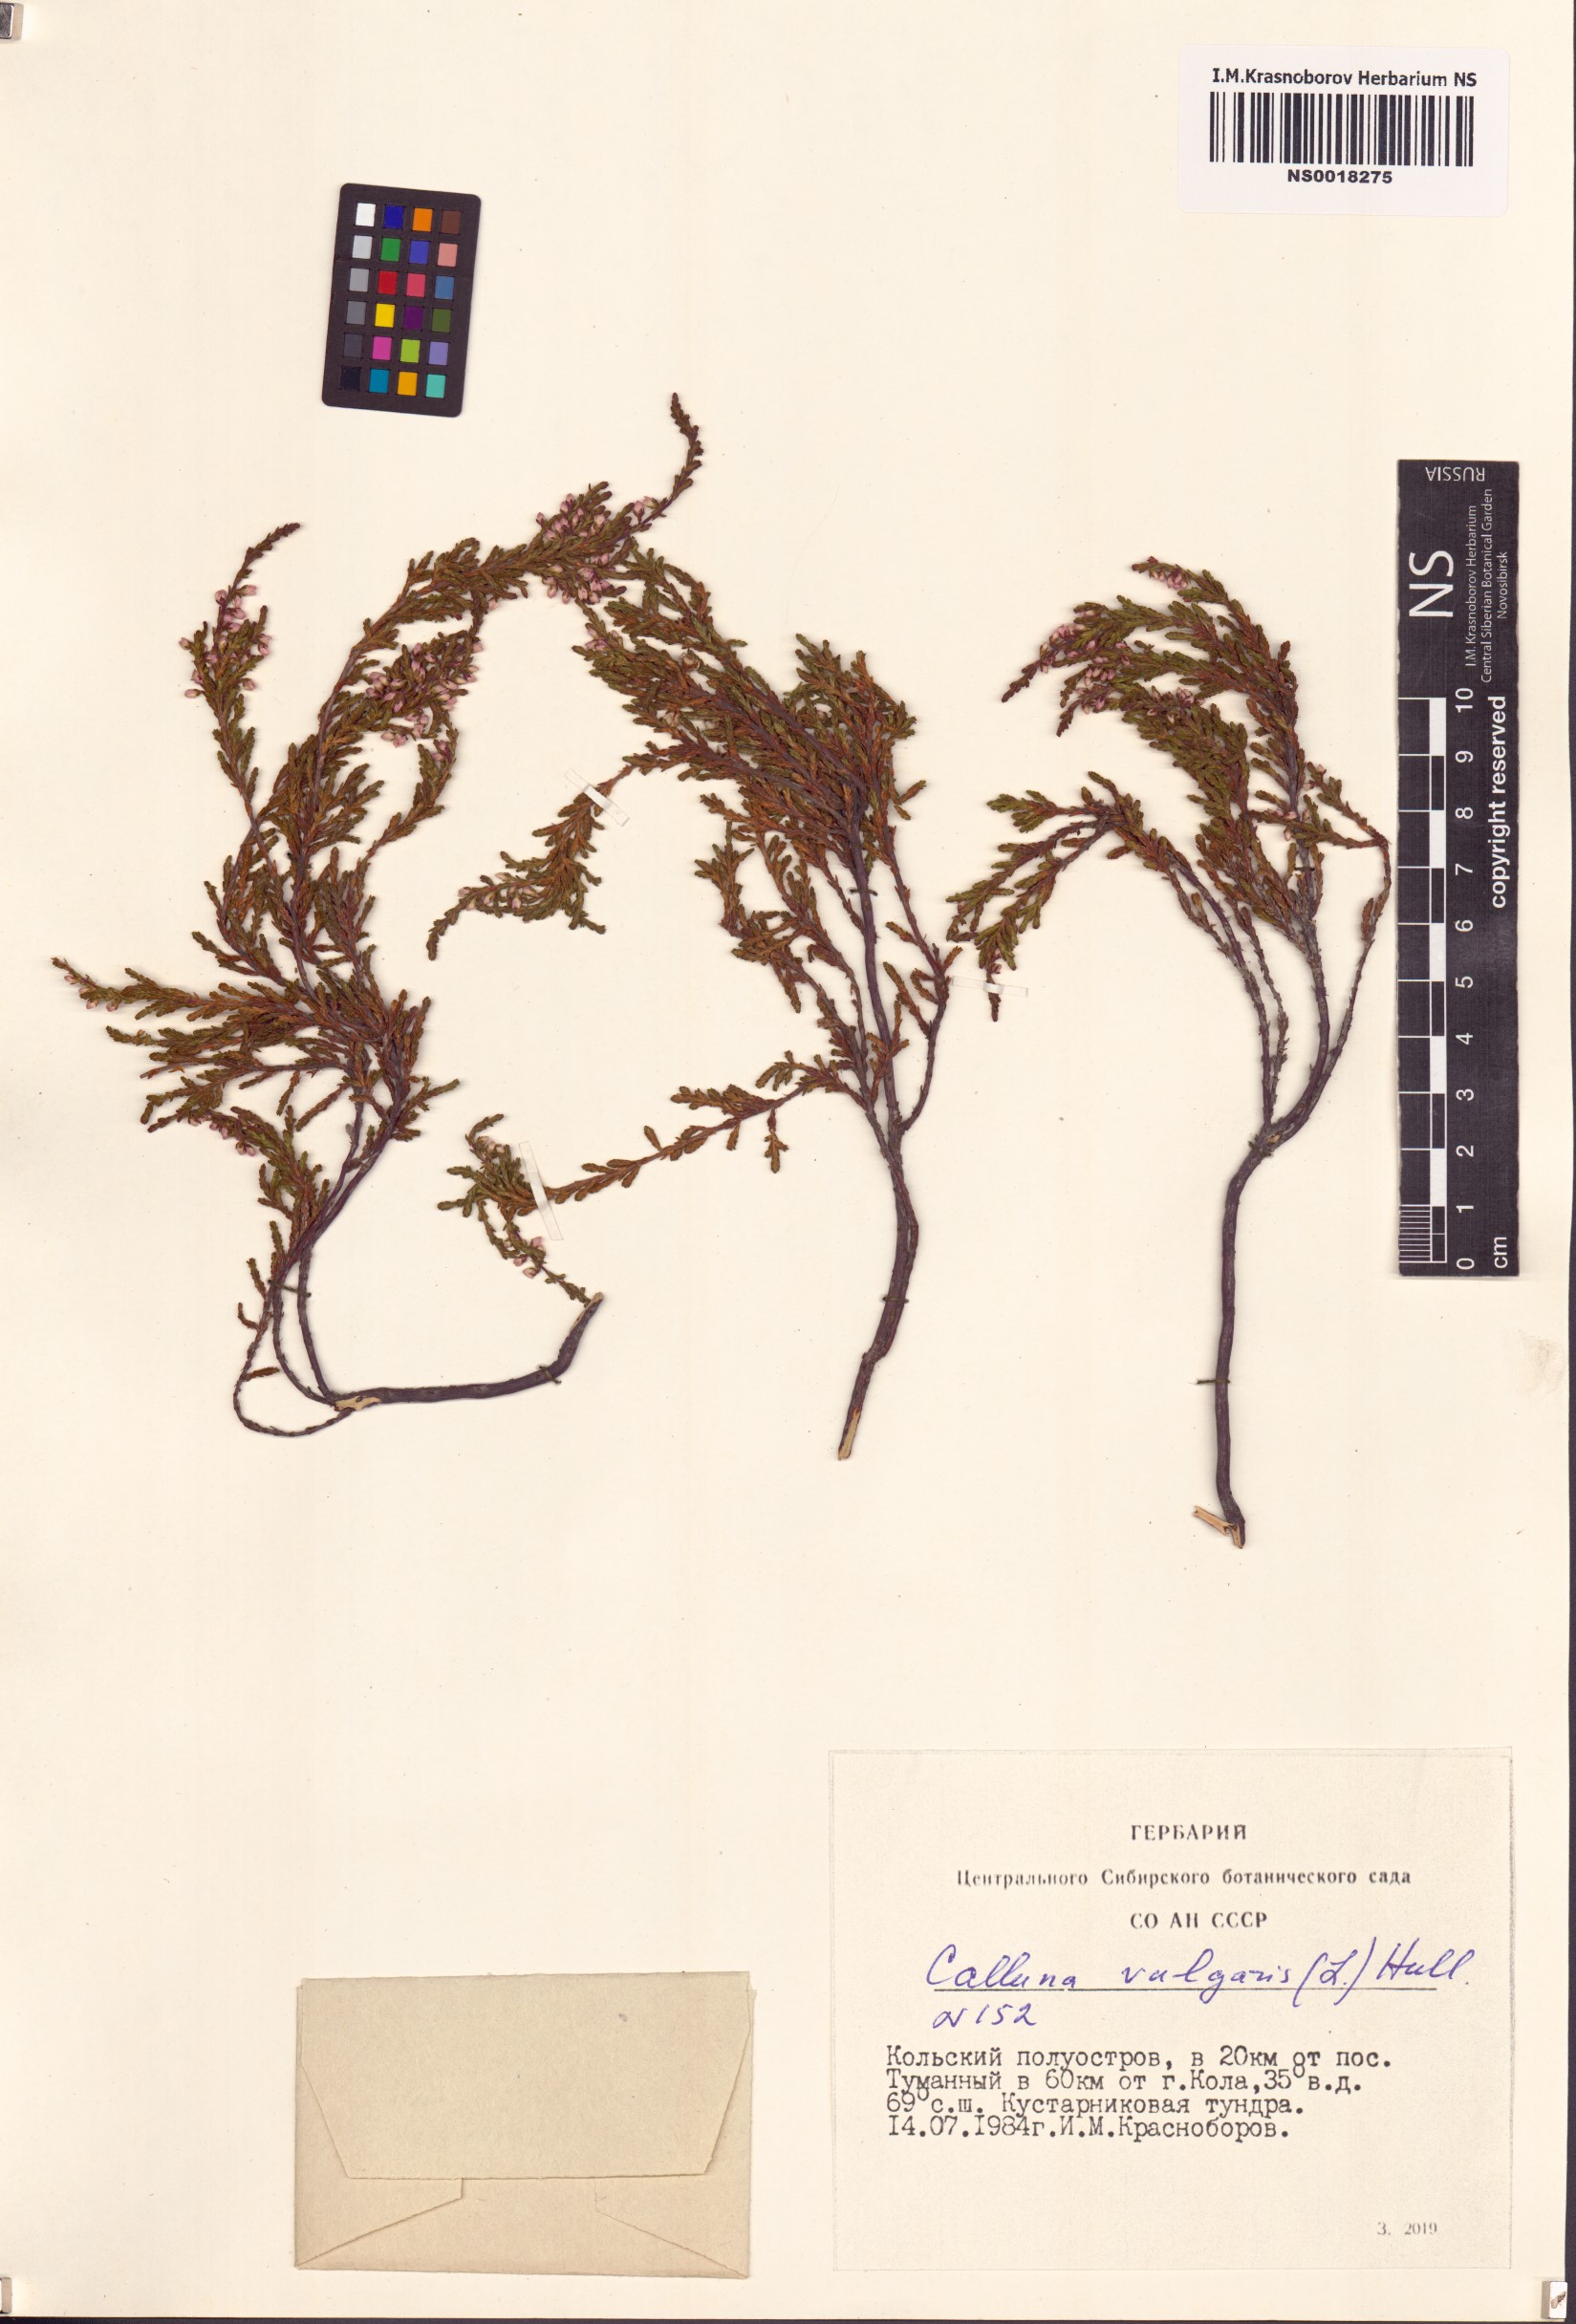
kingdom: Plantae
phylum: Tracheophyta
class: Magnoliopsida
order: Ericales
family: Ericaceae
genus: Calluna
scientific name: Calluna vulgaris
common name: Heather
